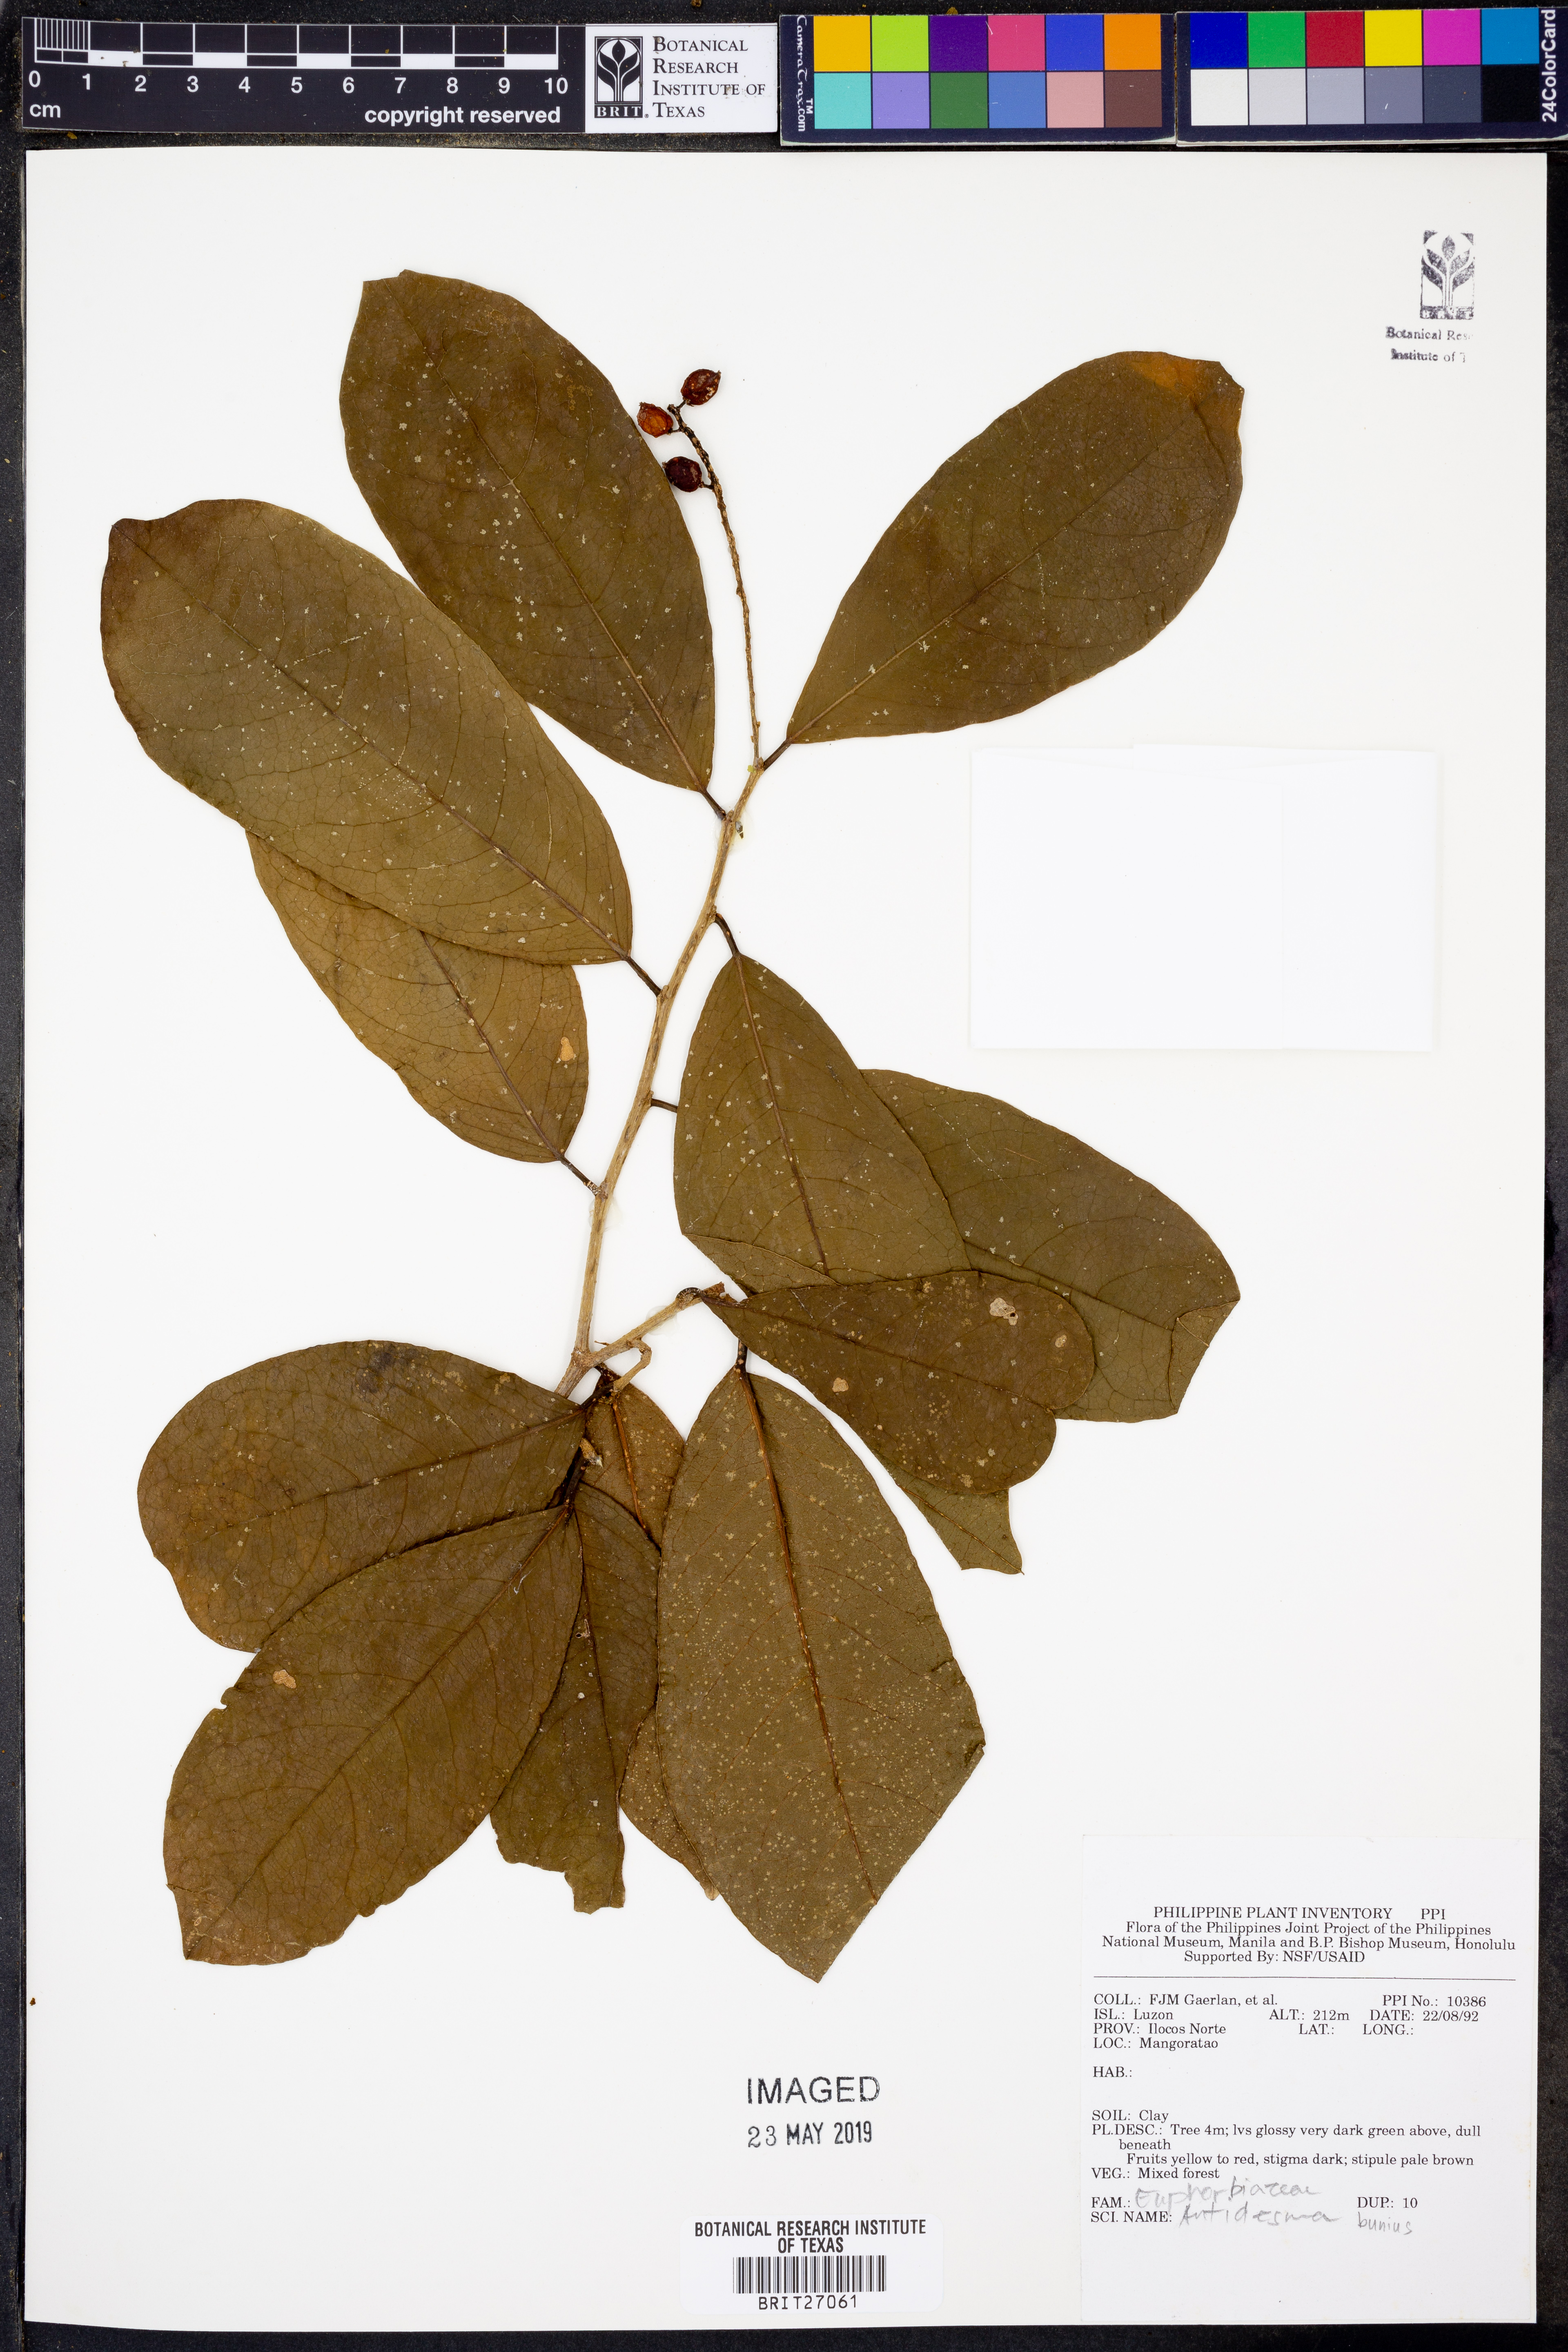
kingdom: Plantae
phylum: Tracheophyta
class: Magnoliopsida
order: Malpighiales
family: Phyllanthaceae
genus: Antidesma
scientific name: Antidesma bunius
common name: Chinese-laurel
